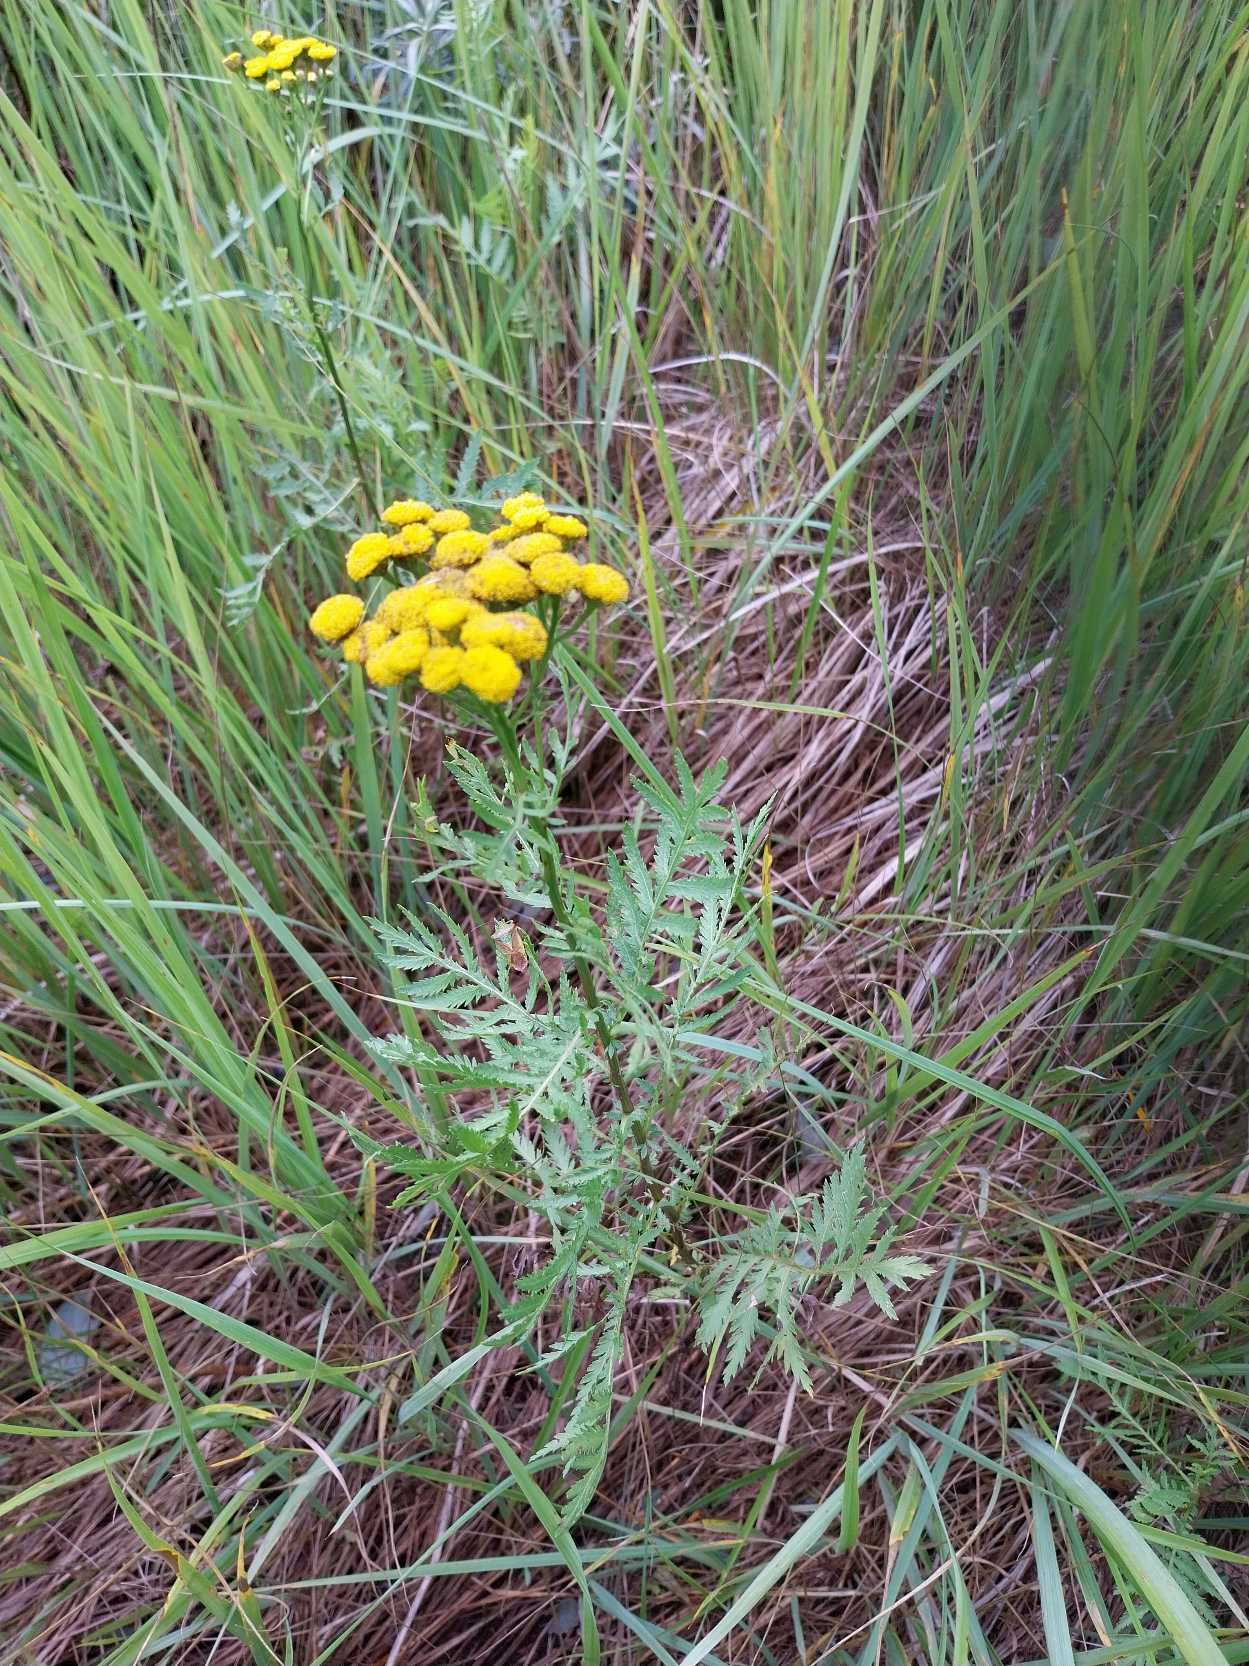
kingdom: Plantae
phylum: Tracheophyta
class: Magnoliopsida
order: Asterales
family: Asteraceae
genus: Tanacetum
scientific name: Tanacetum vulgare
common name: Rejnfan
